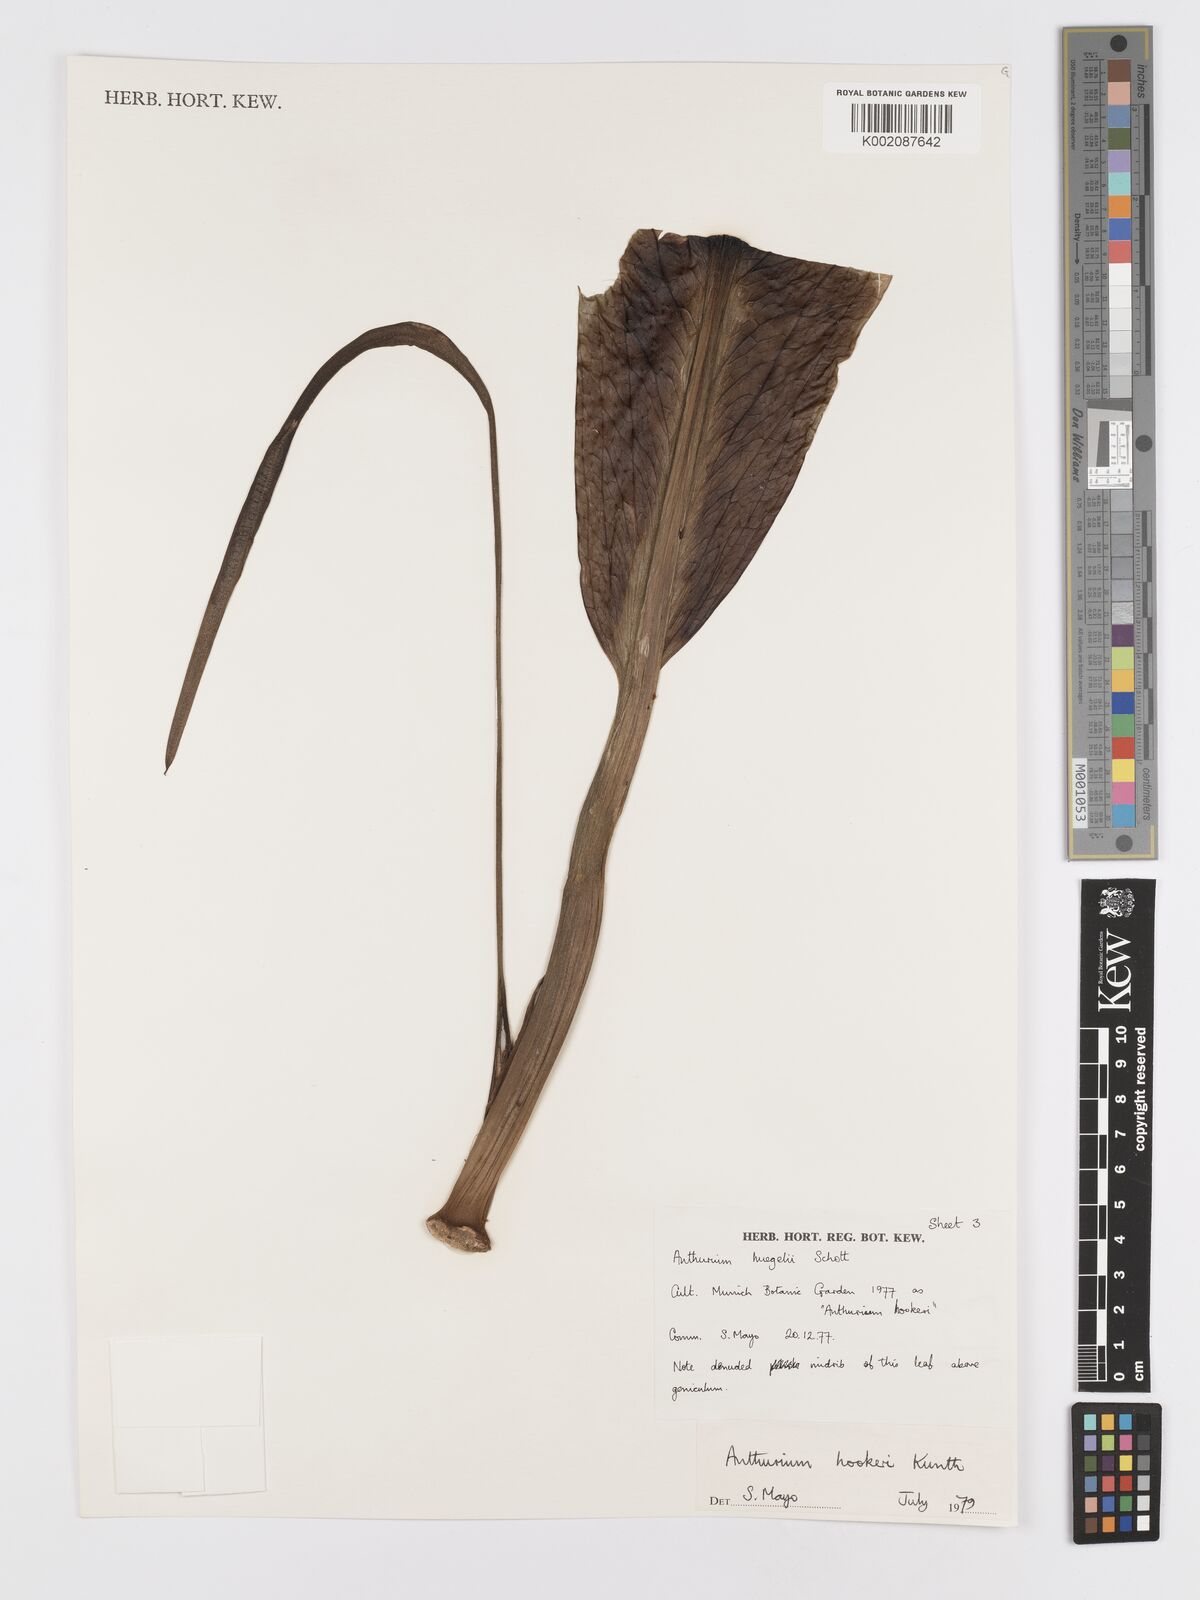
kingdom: Plantae
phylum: Tracheophyta
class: Liliopsida
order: Alismatales
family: Araceae
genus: Anthurium
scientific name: Anthurium hookeri
